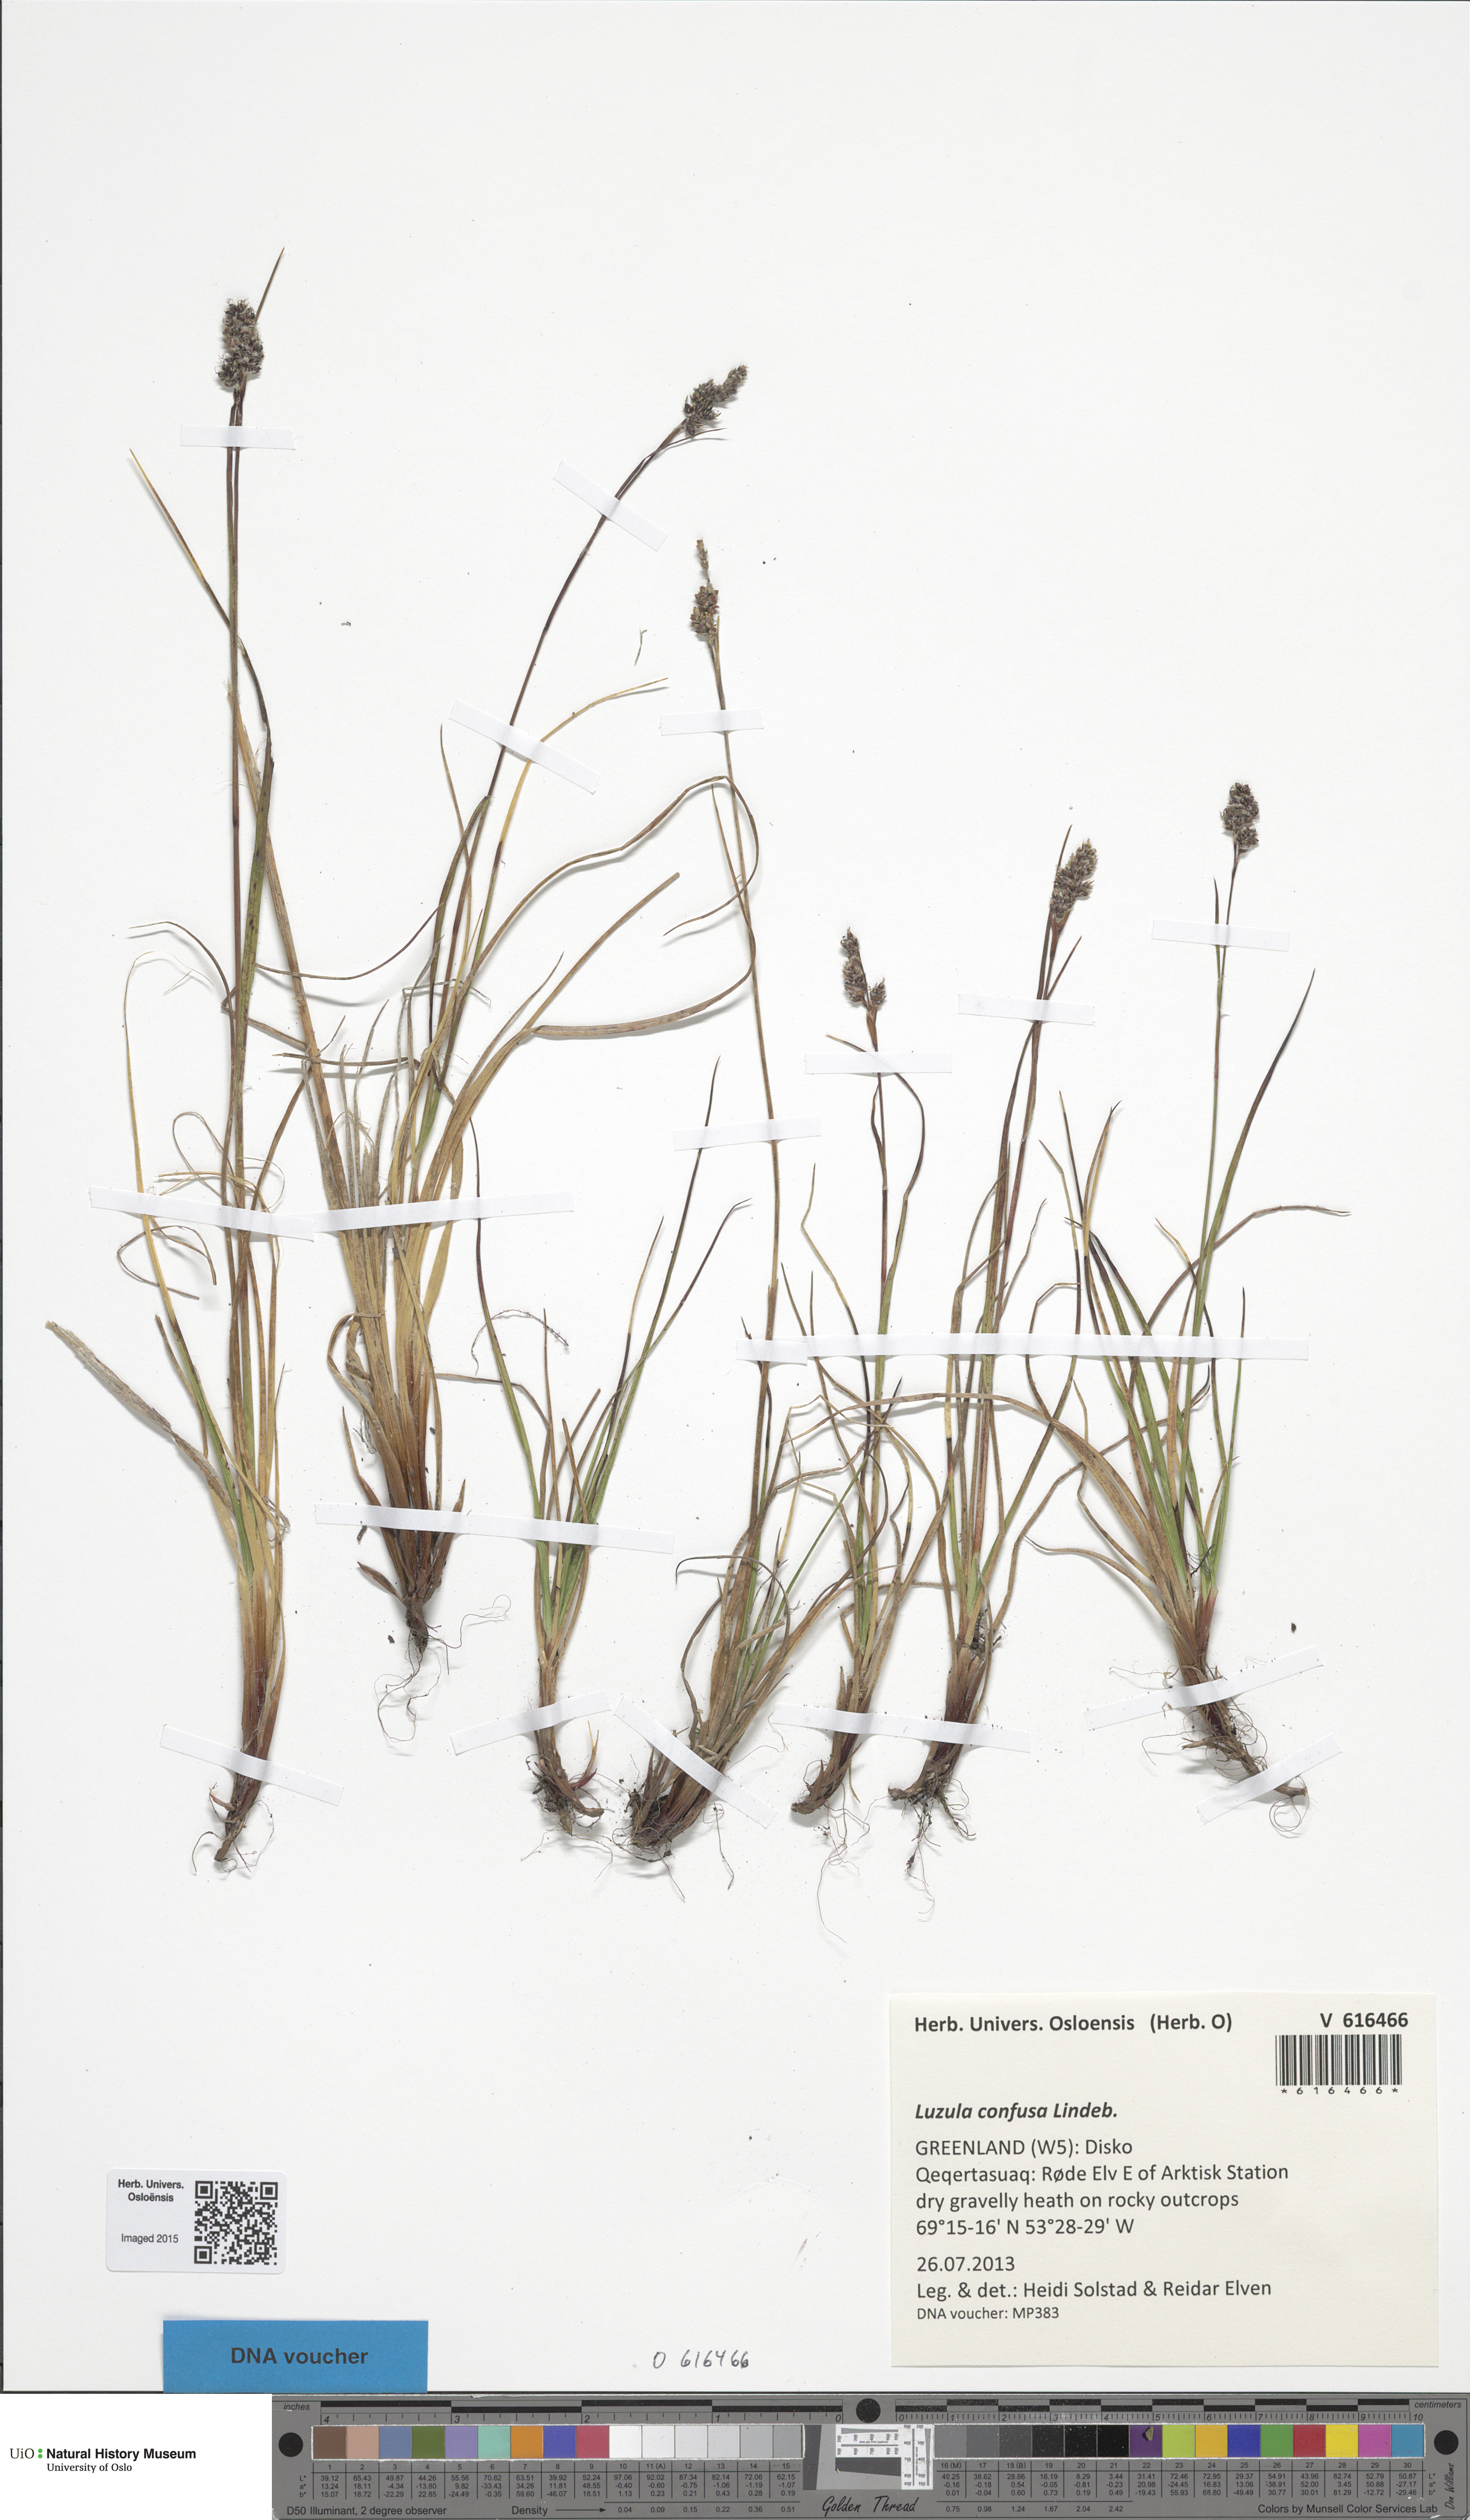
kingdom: Plantae
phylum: Tracheophyta
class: Liliopsida
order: Poales
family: Juncaceae
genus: Luzula
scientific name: Luzula confusa
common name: Northern wood rush
